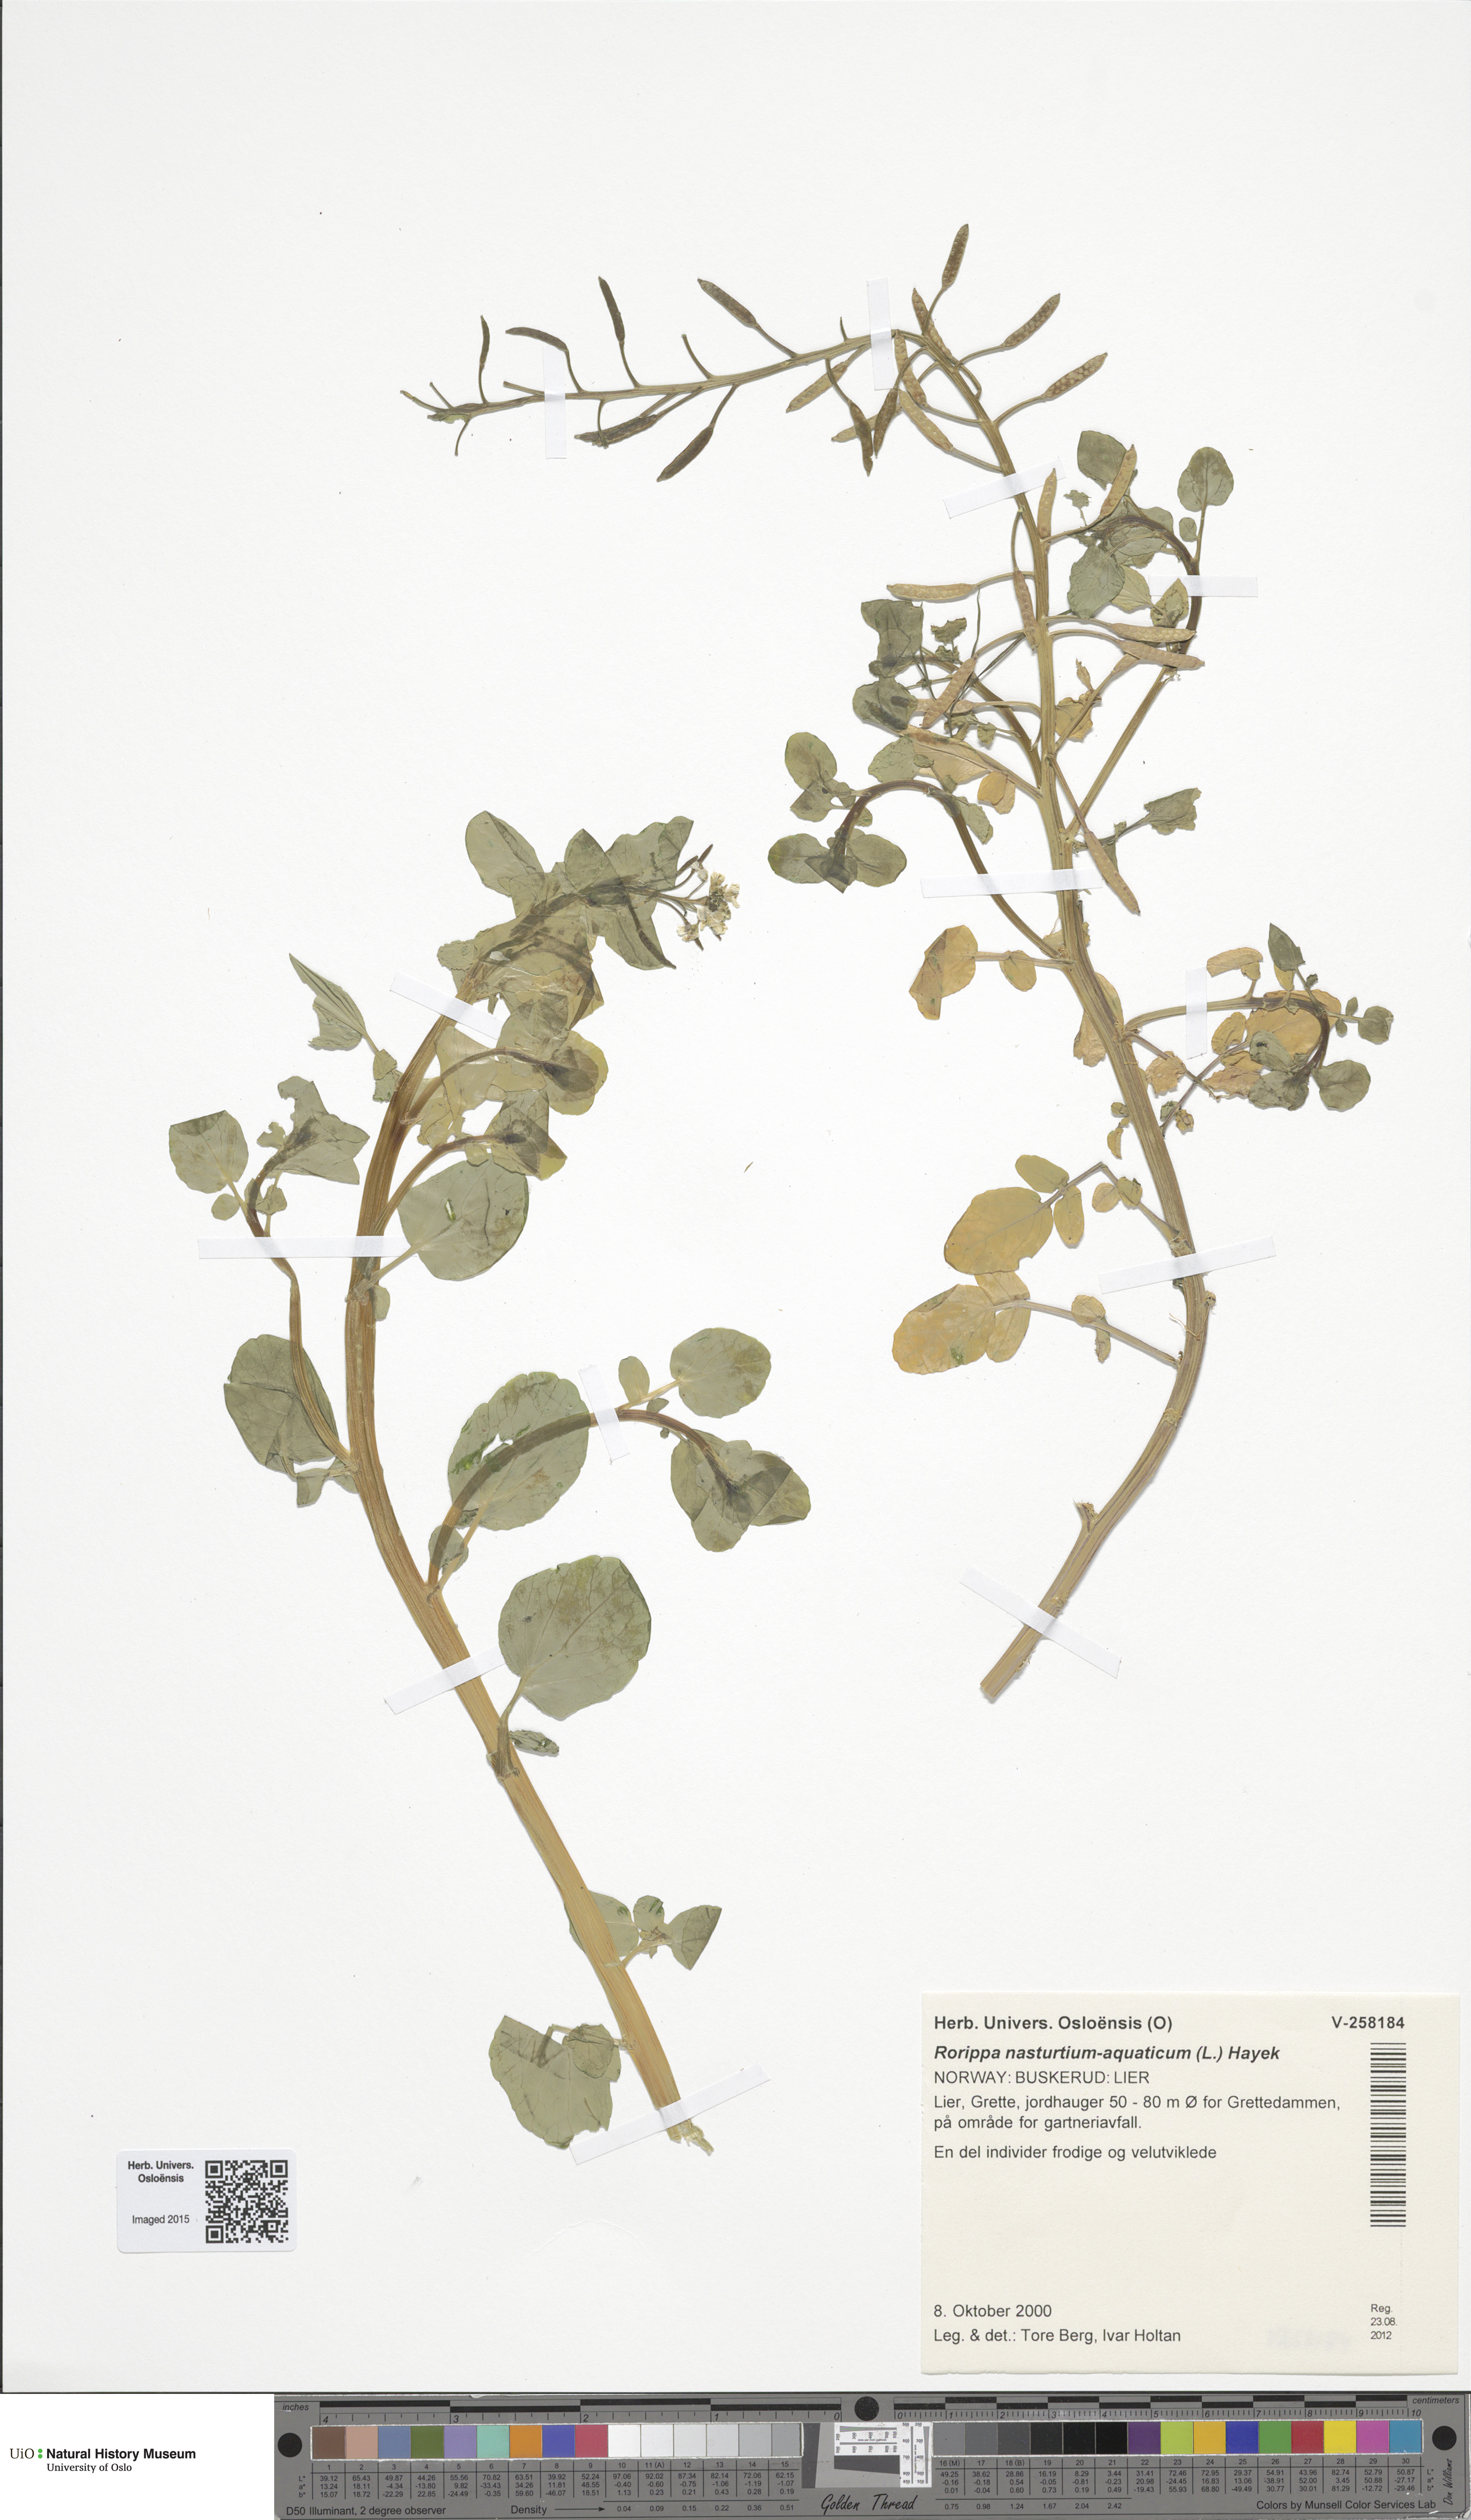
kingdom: Plantae
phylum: Tracheophyta
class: Magnoliopsida
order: Brassicales
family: Brassicaceae
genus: Nasturtium
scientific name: Nasturtium officinale
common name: Watercress
